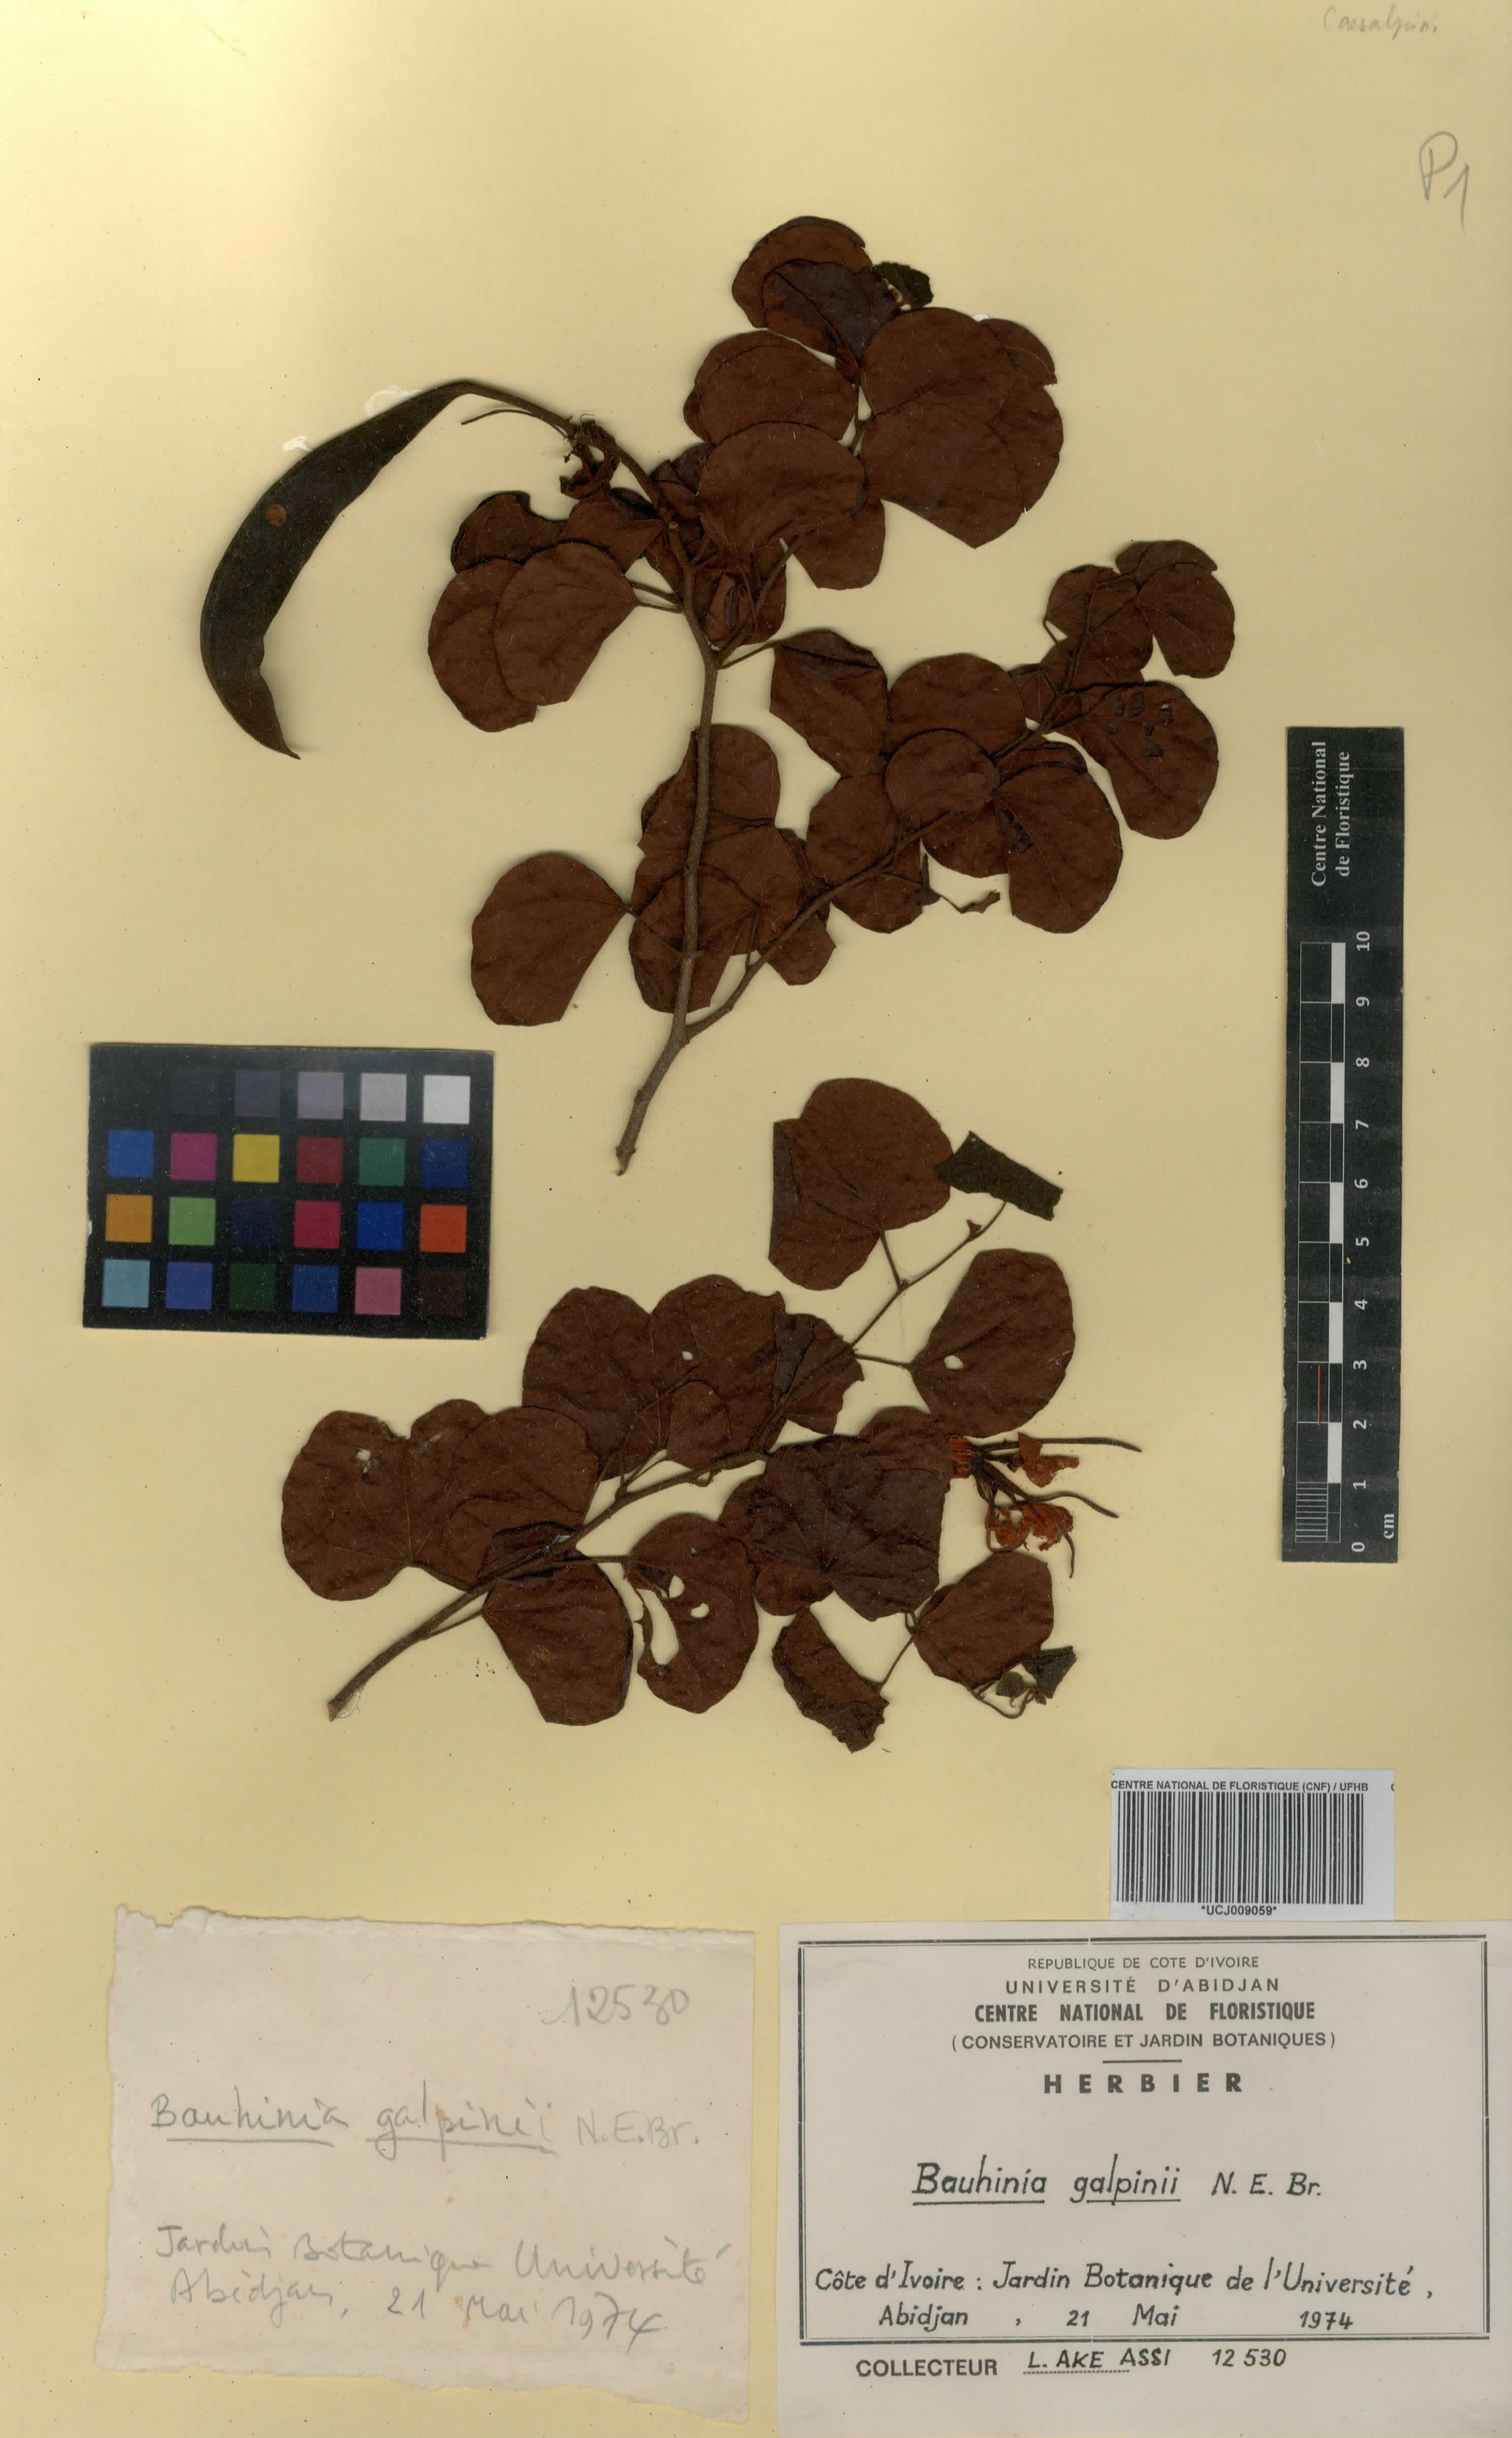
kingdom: Plantae
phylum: Tracheophyta
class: Magnoliopsida
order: Fabales
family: Fabaceae
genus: Bauhinia
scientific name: Bauhinia galpinii
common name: African plume
